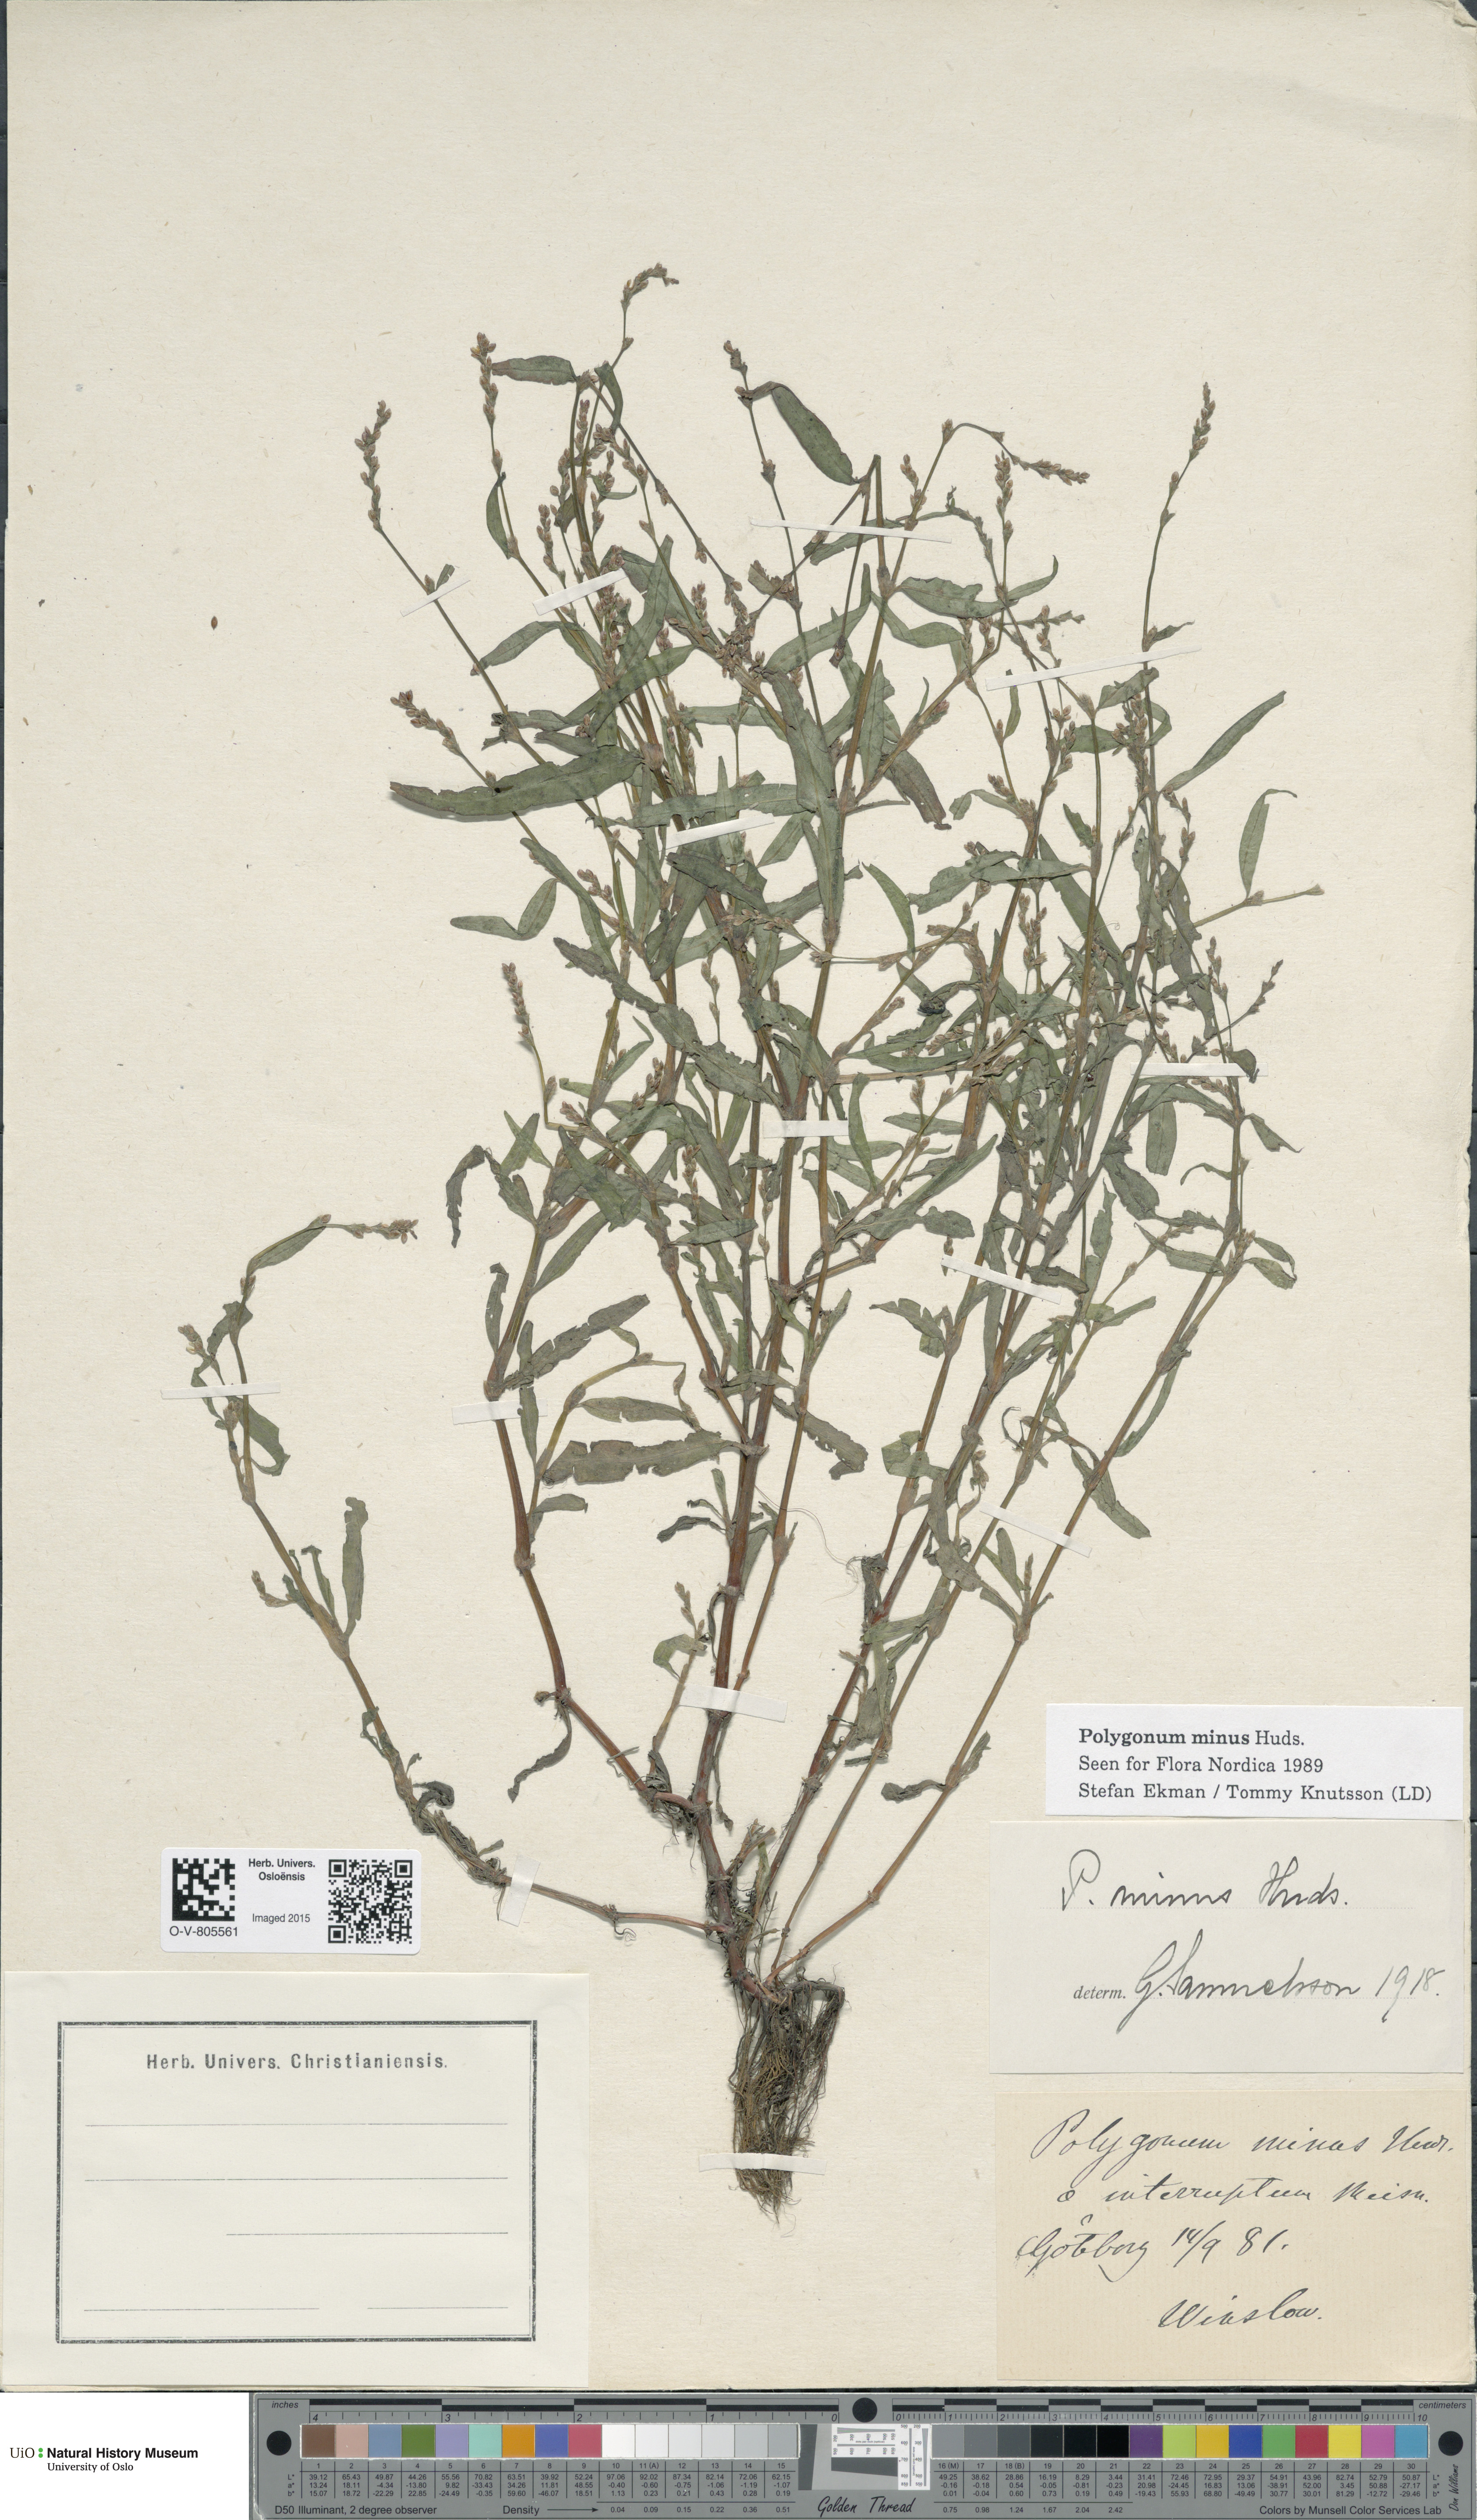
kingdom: Plantae
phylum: Tracheophyta
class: Magnoliopsida
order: Caryophyllales
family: Polygonaceae
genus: Persicaria
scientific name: Persicaria minor
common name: Small water-pepper
